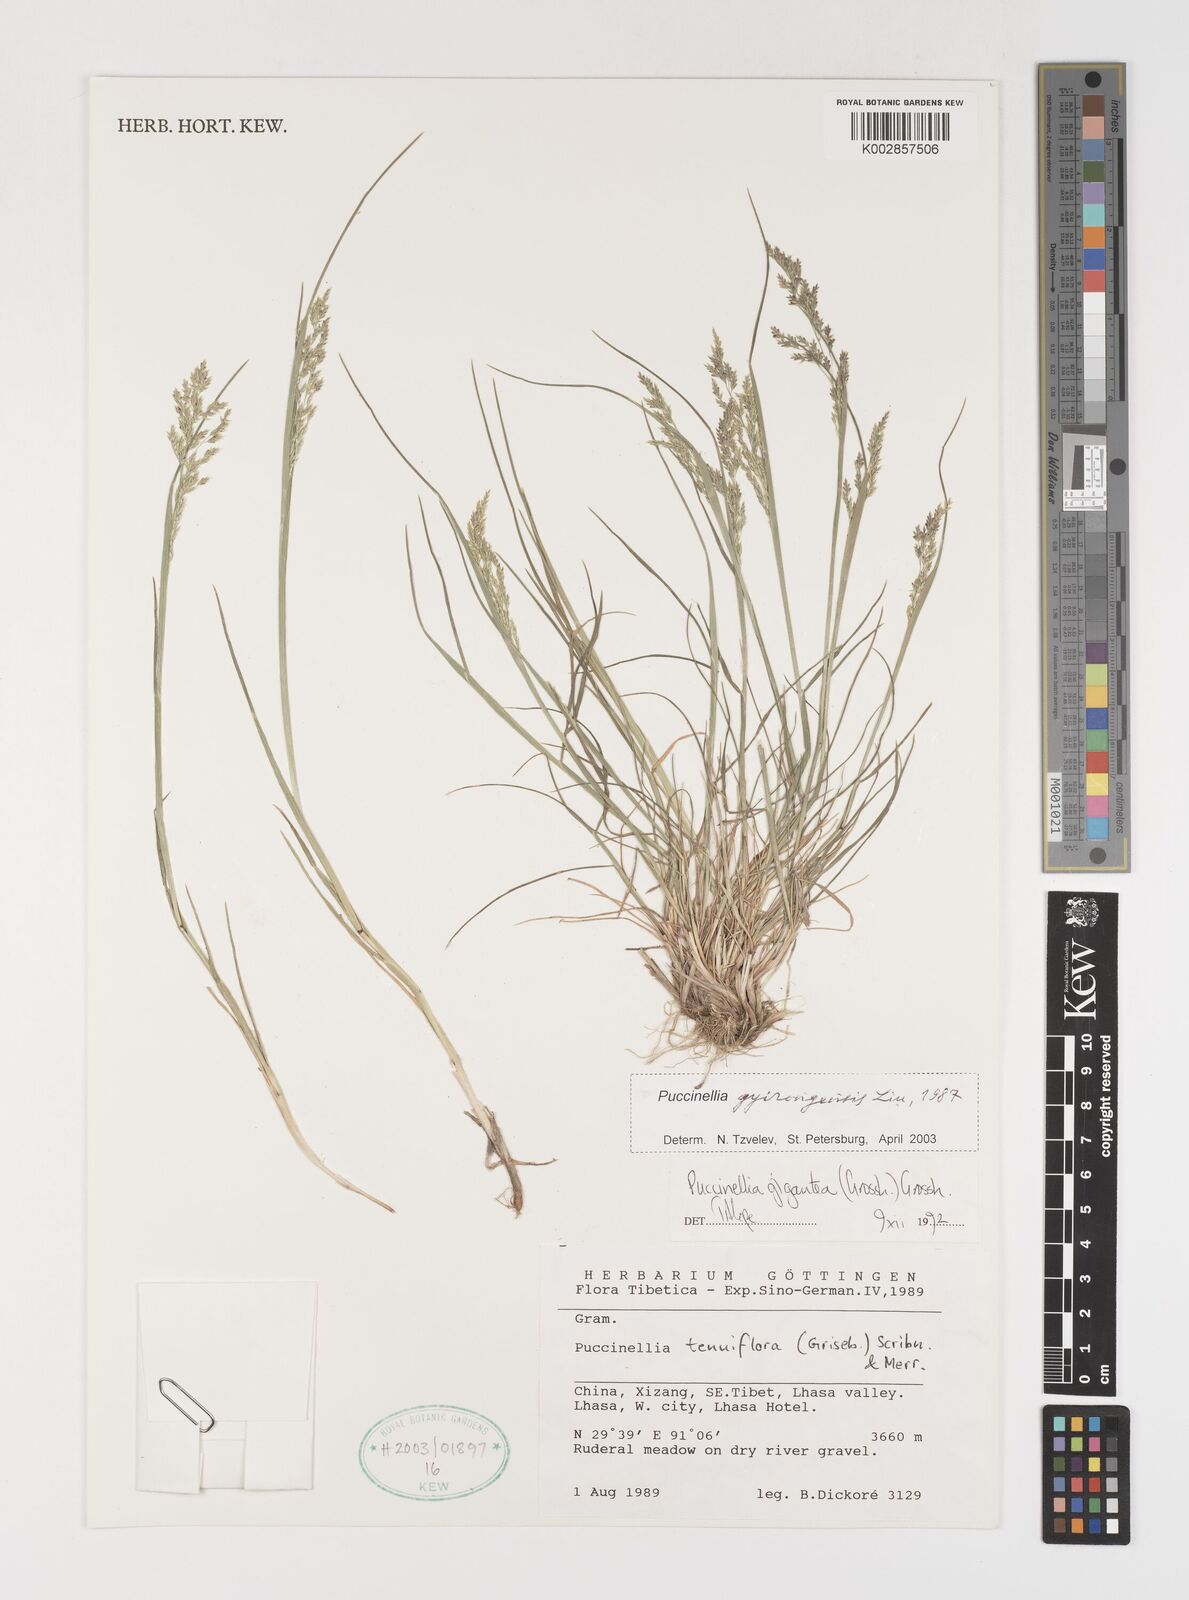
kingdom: Plantae
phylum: Tracheophyta
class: Liliopsida
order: Poales
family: Poaceae
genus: Puccinellia
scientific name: Puccinellia tianschanica
